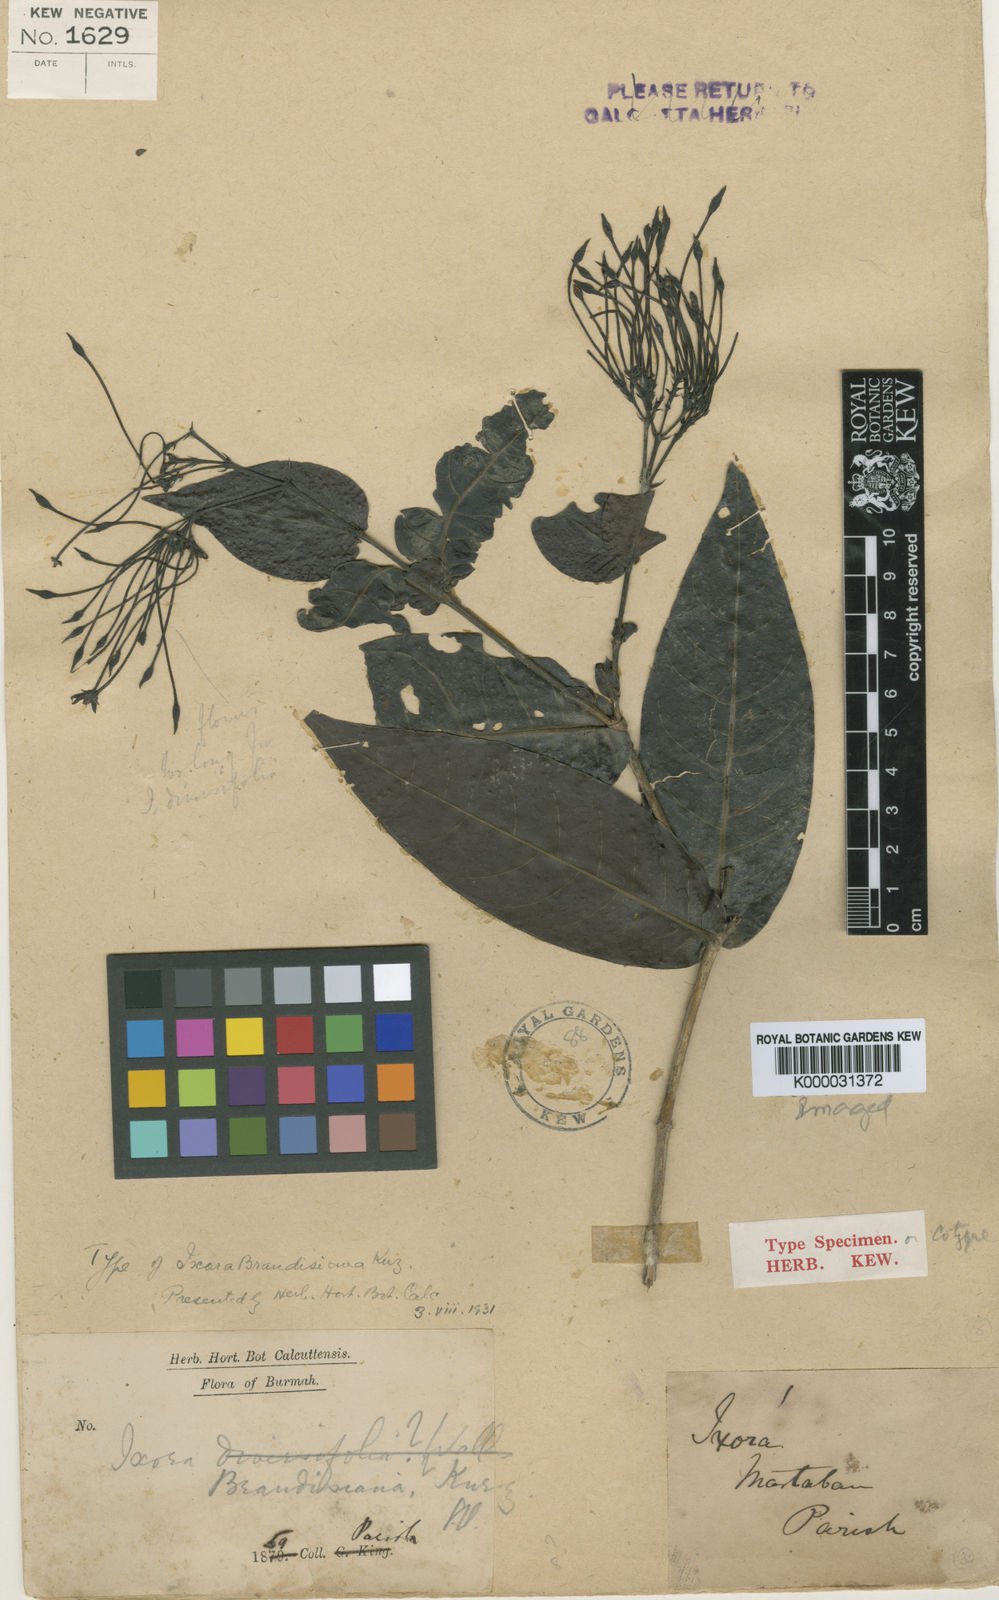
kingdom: Plantae
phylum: Tracheophyta
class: Magnoliopsida
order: Gentianales
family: Rubiaceae
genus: Ixora
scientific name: Ixora brandisiana
